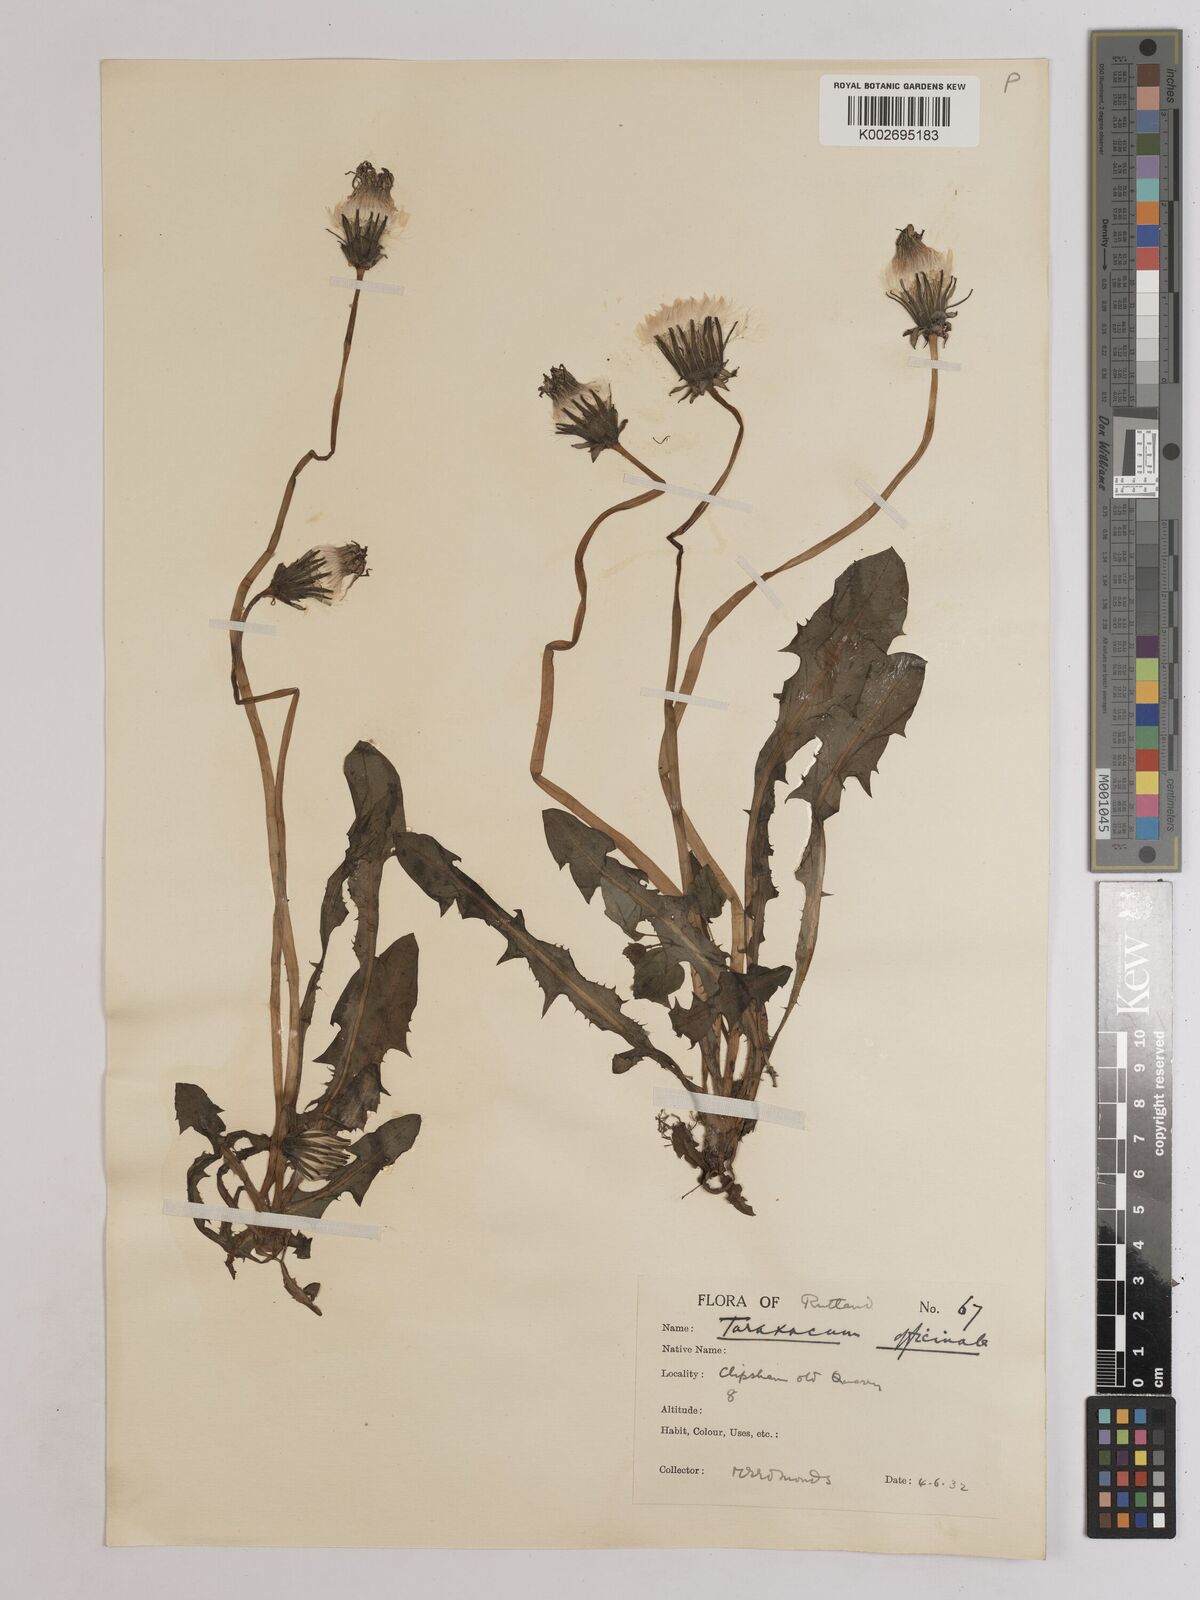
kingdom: Plantae
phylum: Tracheophyta
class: Magnoliopsida
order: Asterales
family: Asteraceae
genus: Taraxacum
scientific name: Taraxacum officinale
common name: Common dandelion
